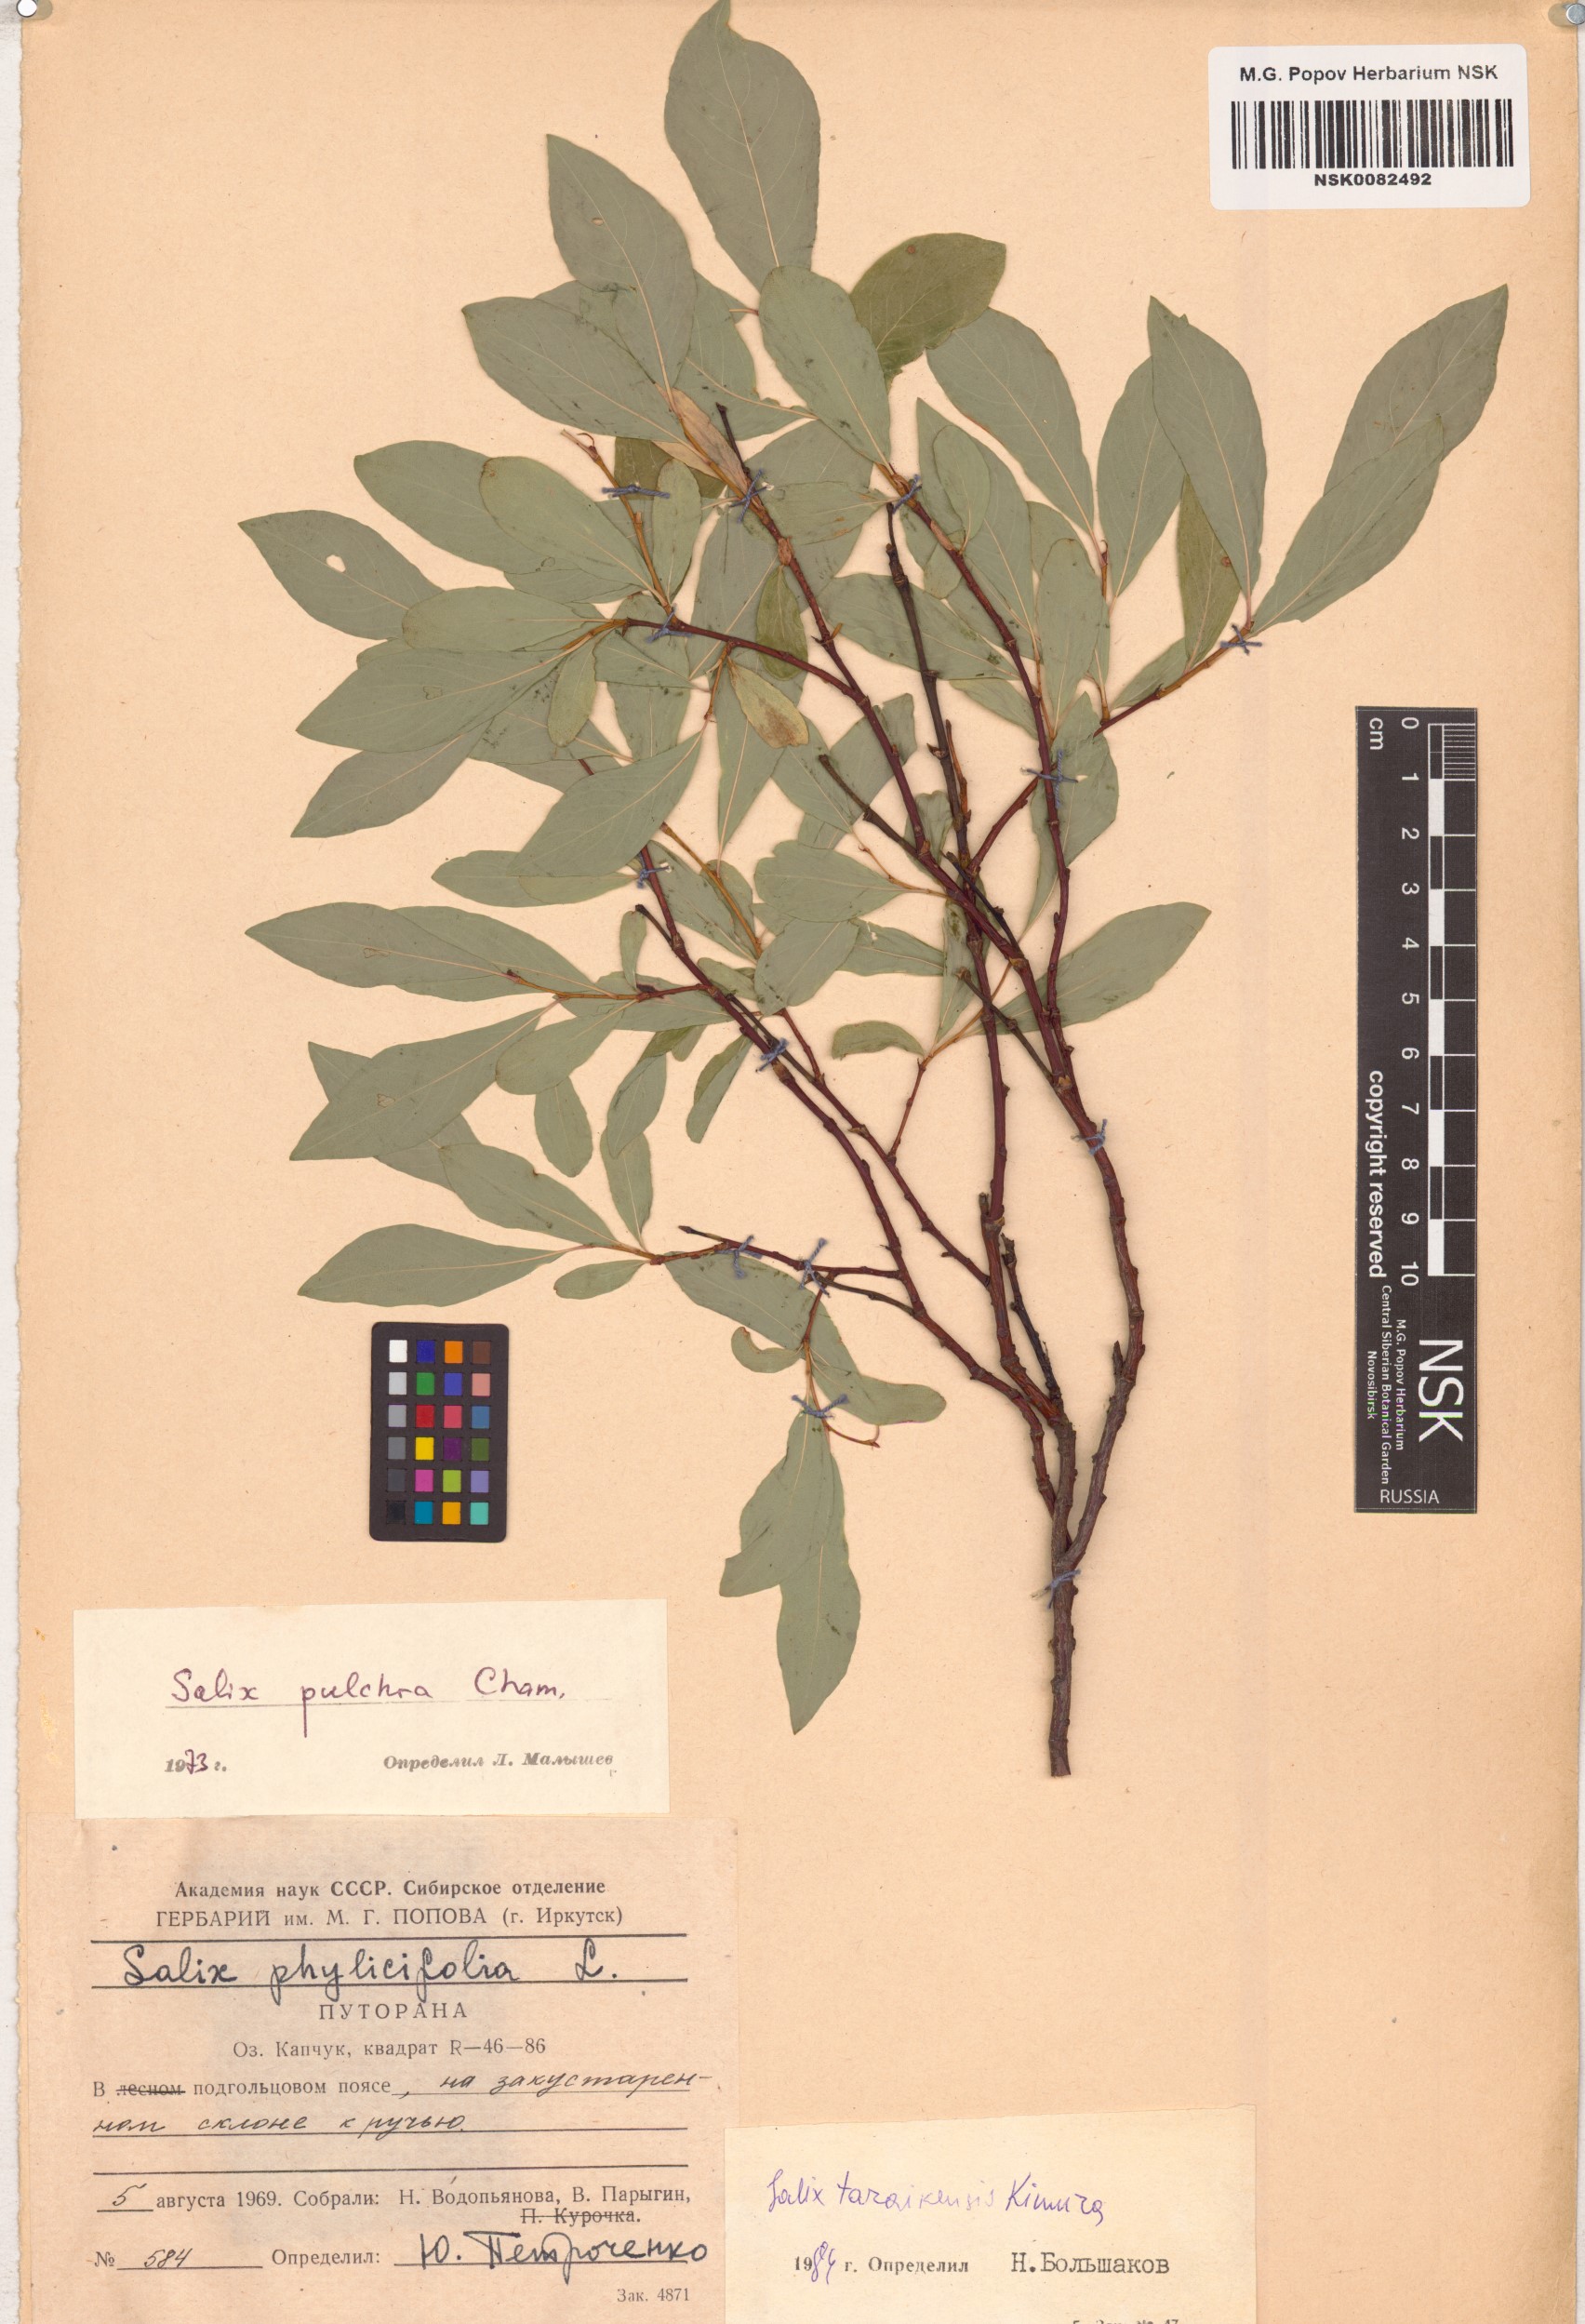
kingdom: Plantae
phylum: Tracheophyta
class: Magnoliopsida
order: Malpighiales
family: Salicaceae
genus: Salix
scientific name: Salix taraikensis
